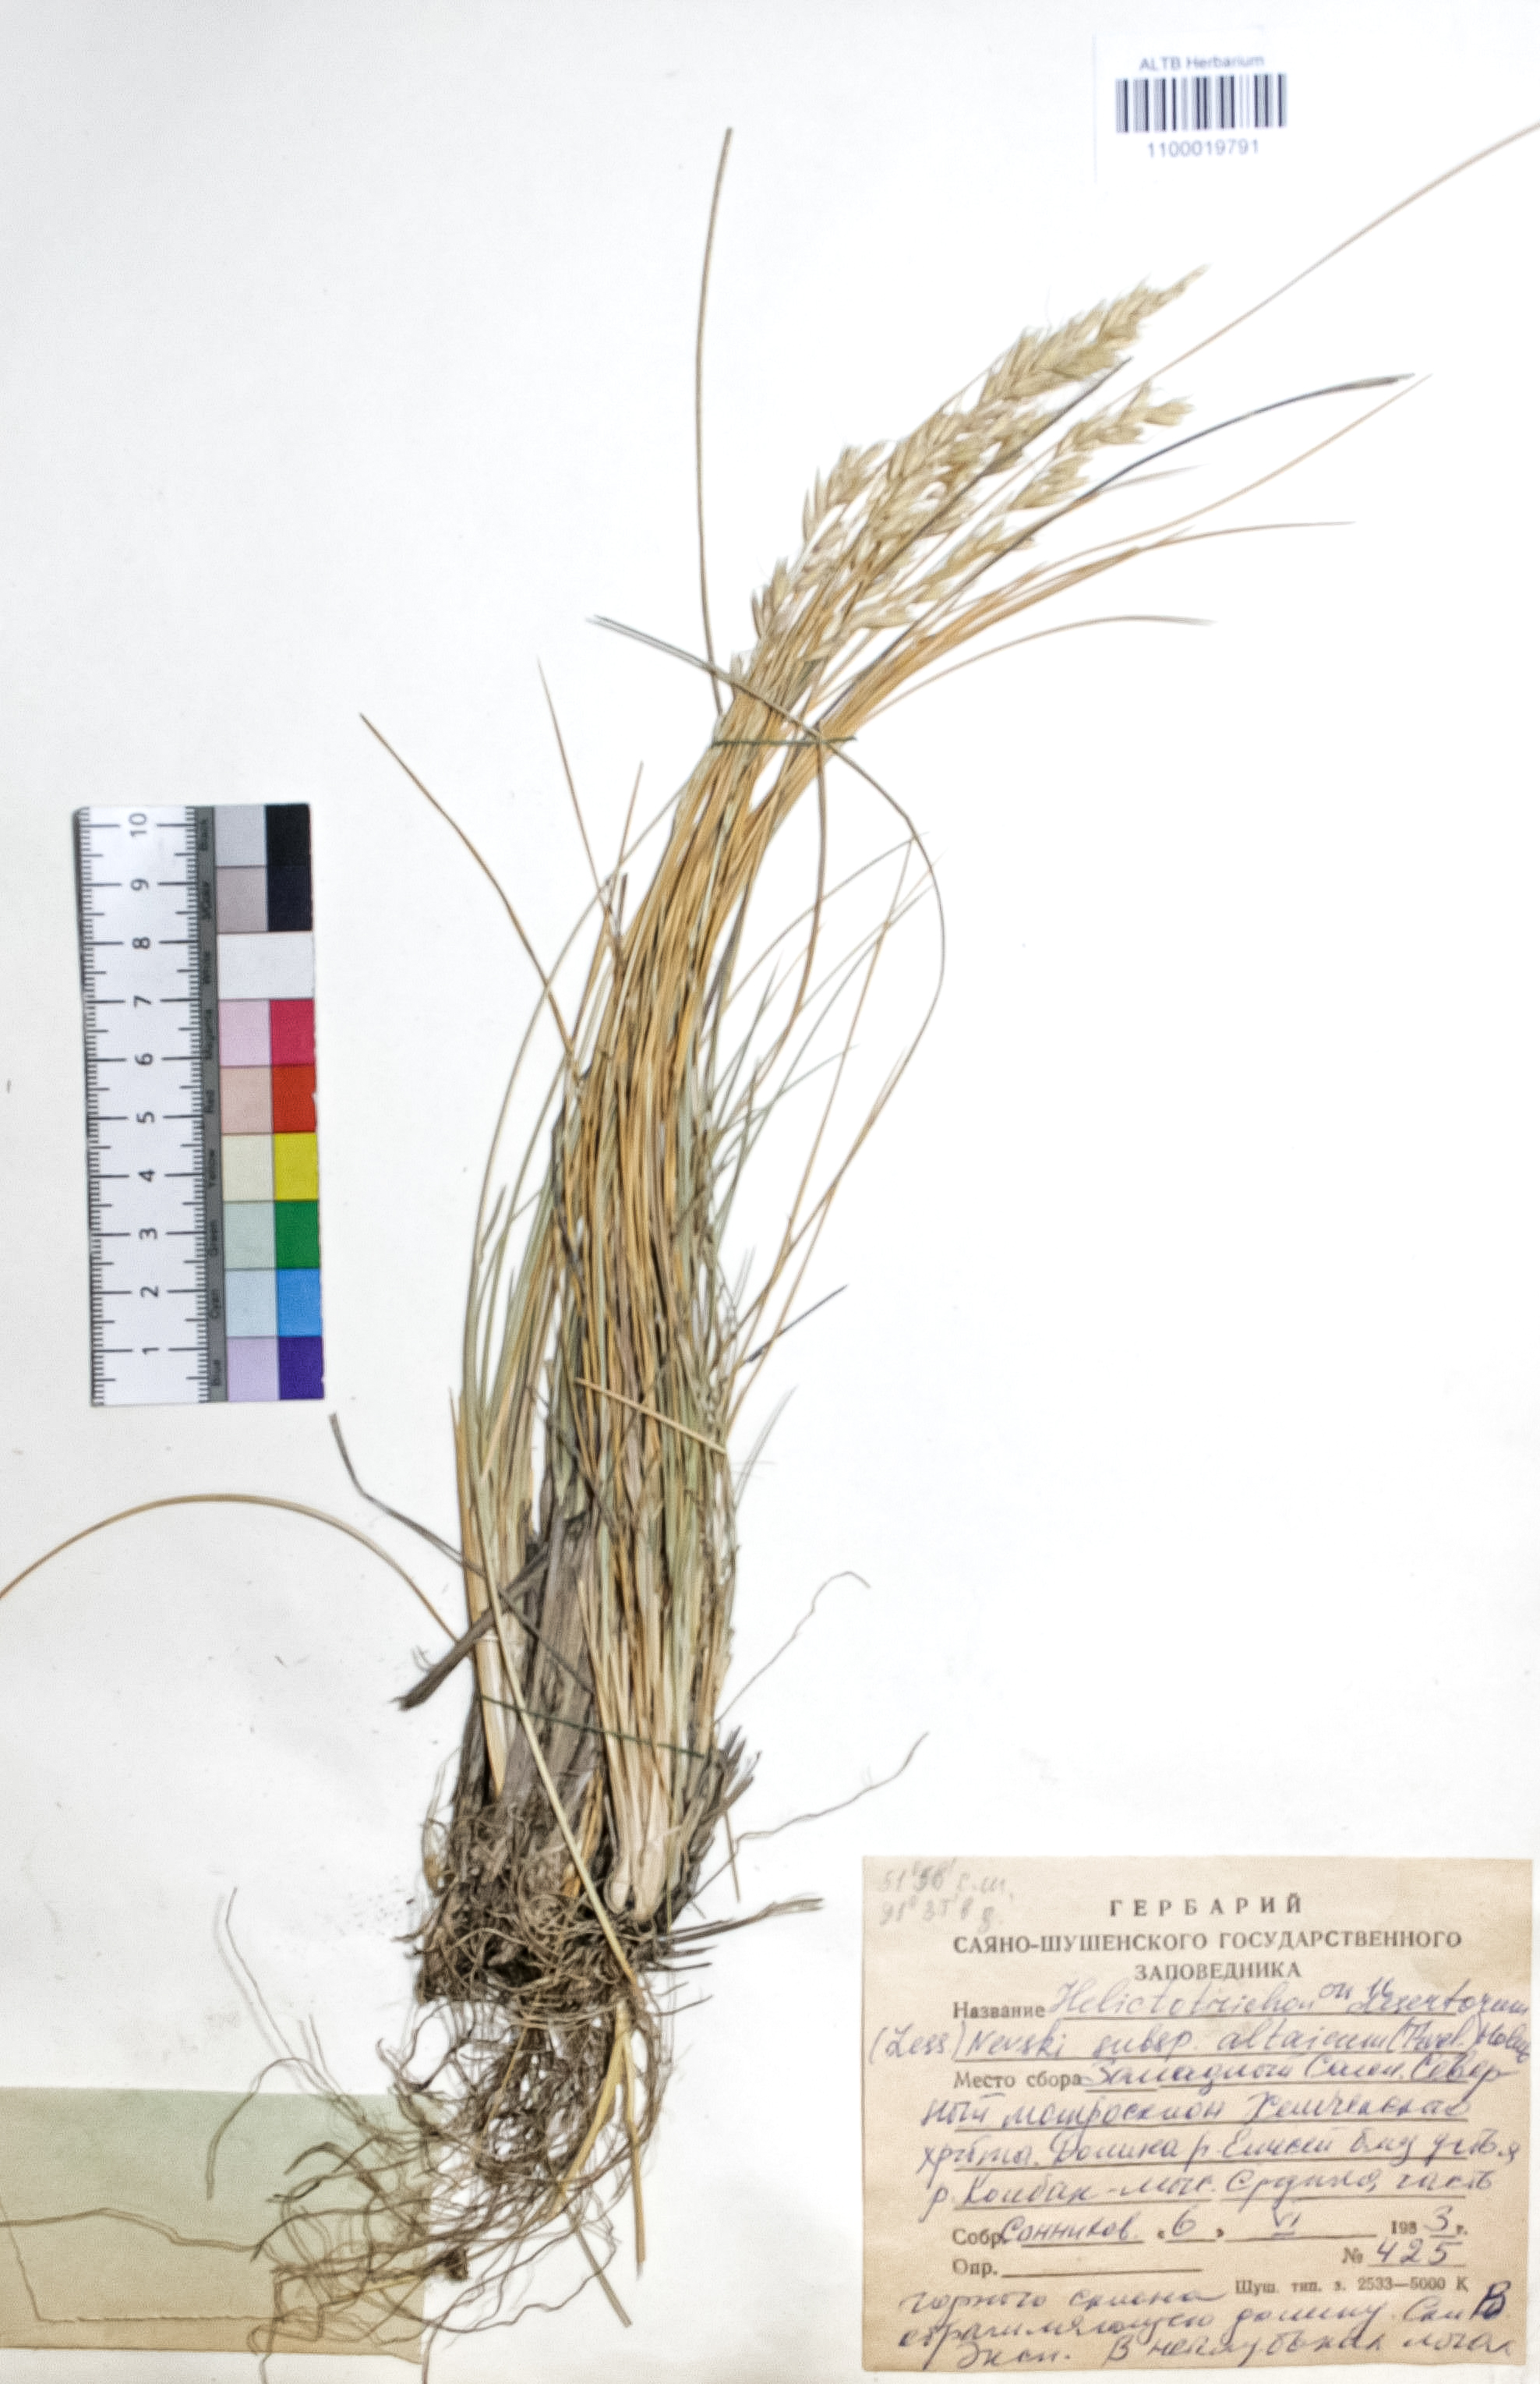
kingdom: Plantae
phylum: Tracheophyta
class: Liliopsida
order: Poales
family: Poaceae
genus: Helictotrichon
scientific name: Helictotrichon desertorum
